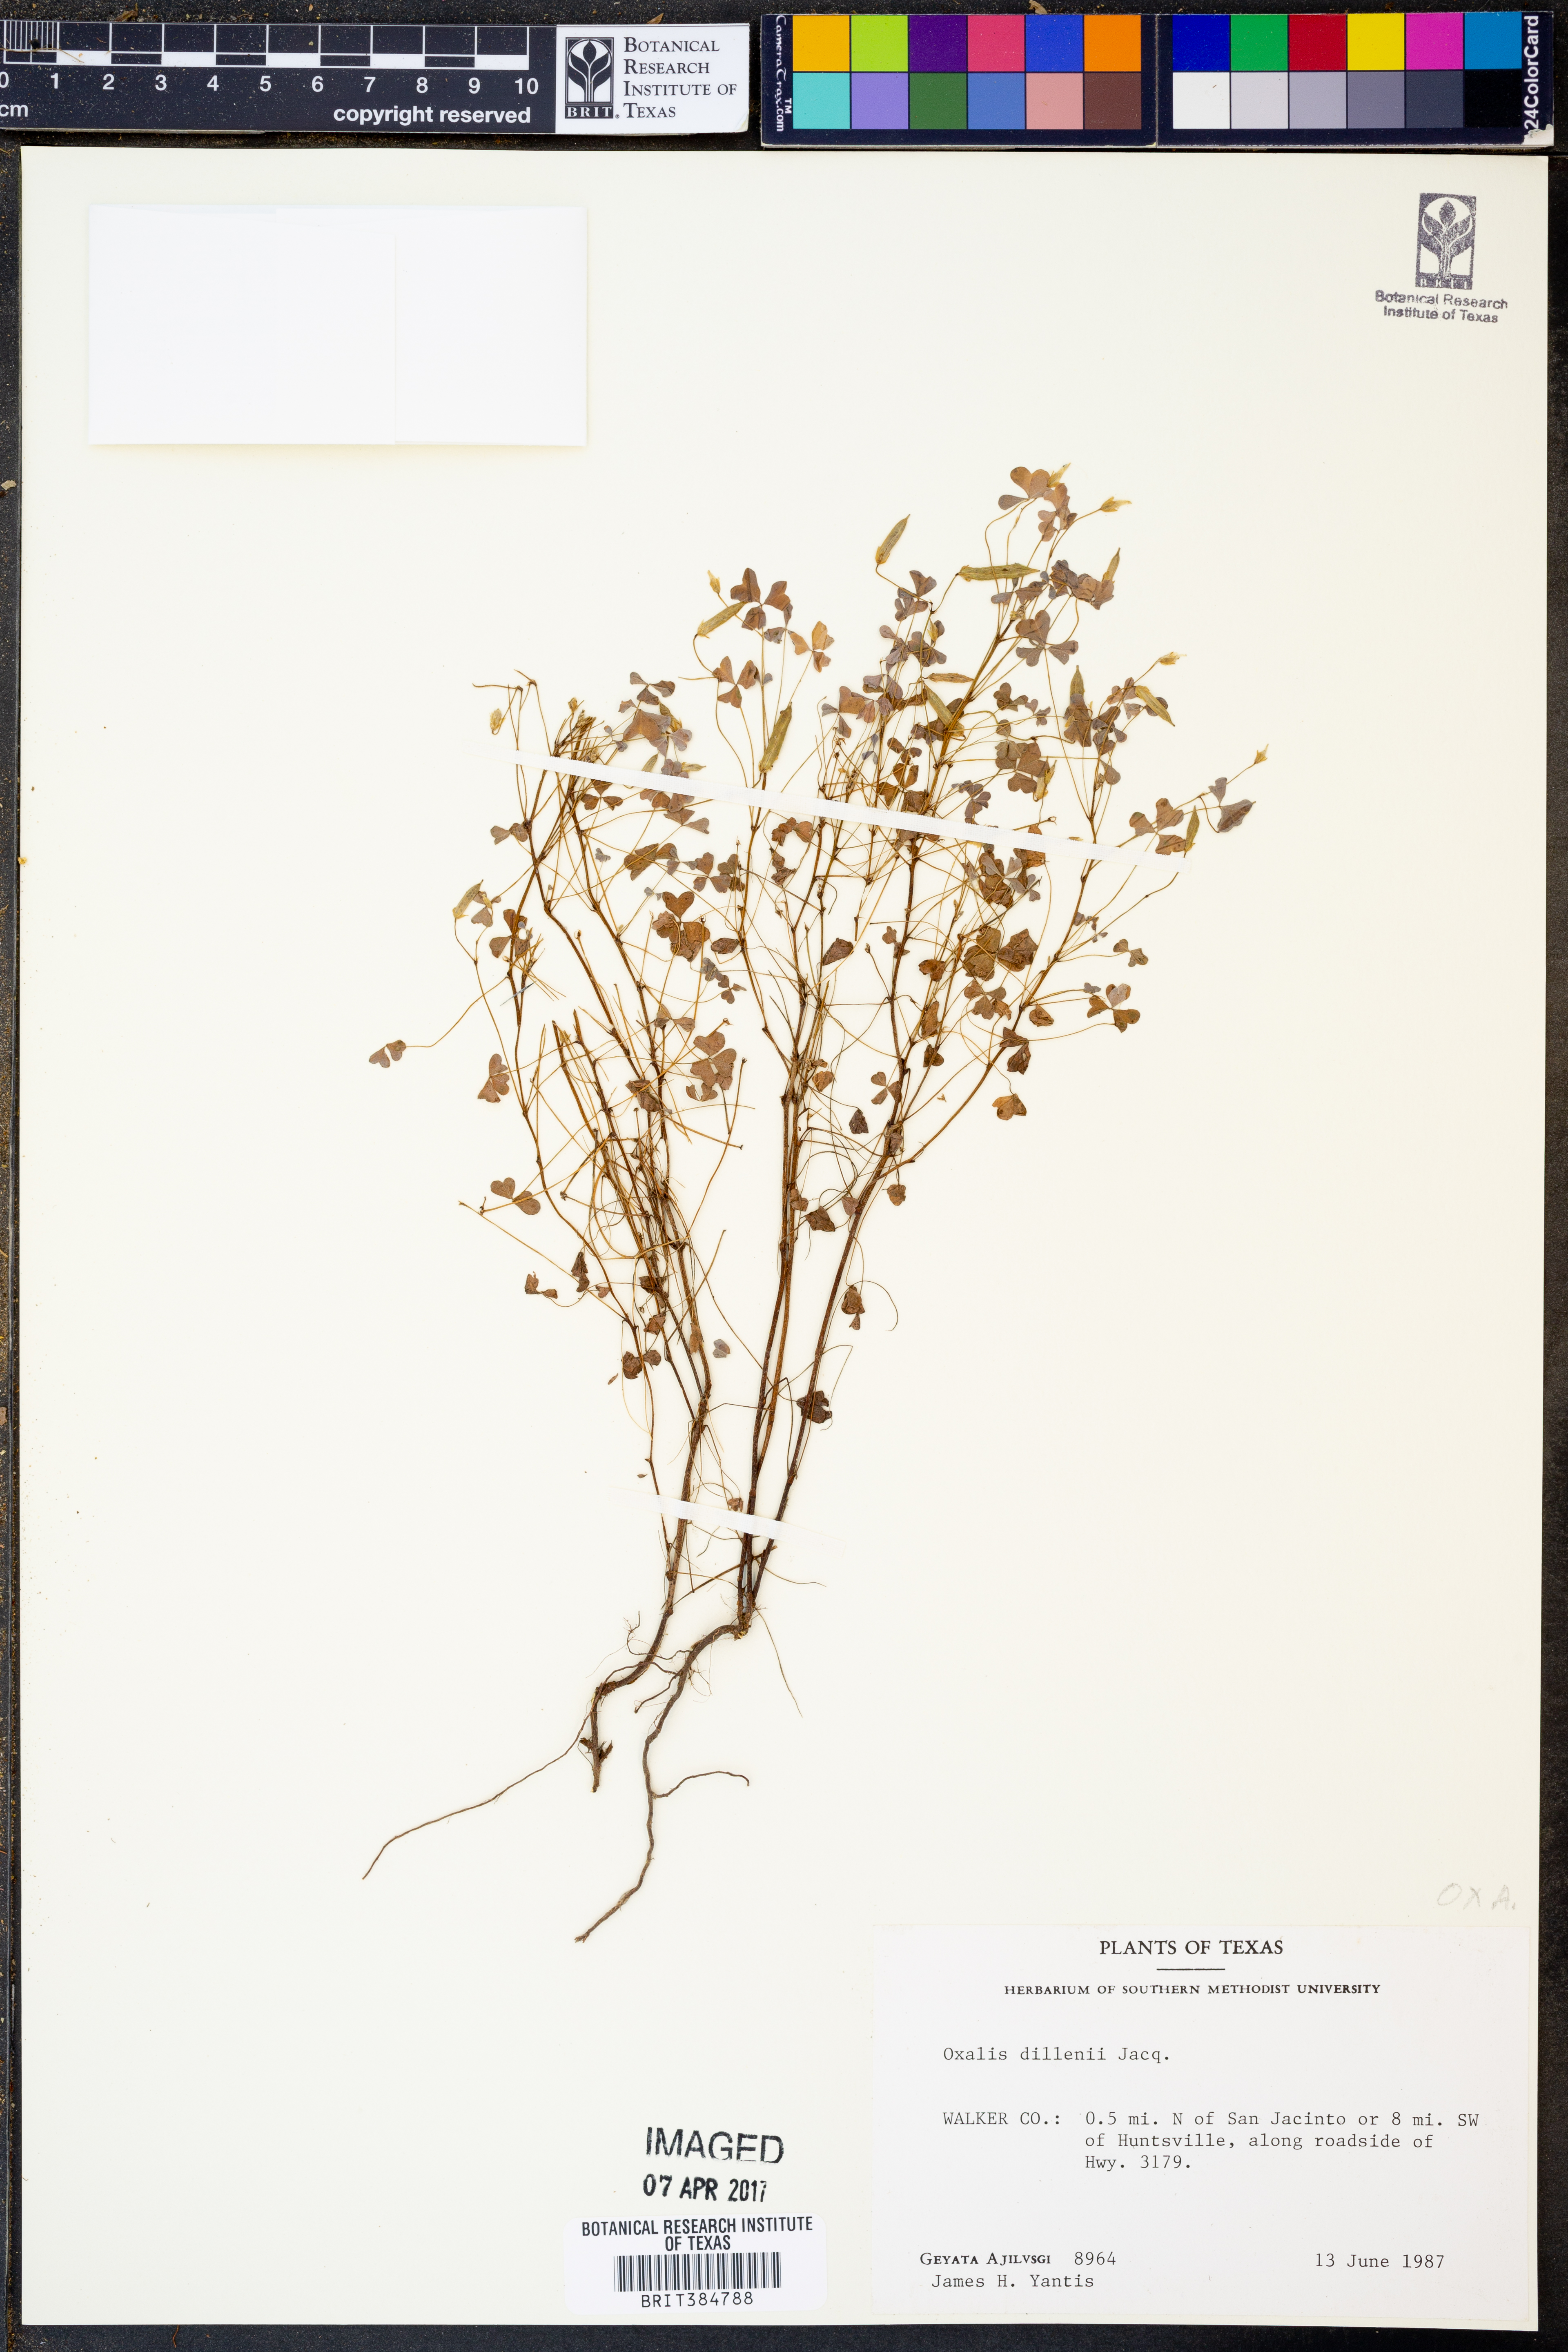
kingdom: Plantae
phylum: Tracheophyta
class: Magnoliopsida
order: Oxalidales
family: Oxalidaceae
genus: Oxalis
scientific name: Oxalis dillenii
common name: Sussex yellow-sorrel
